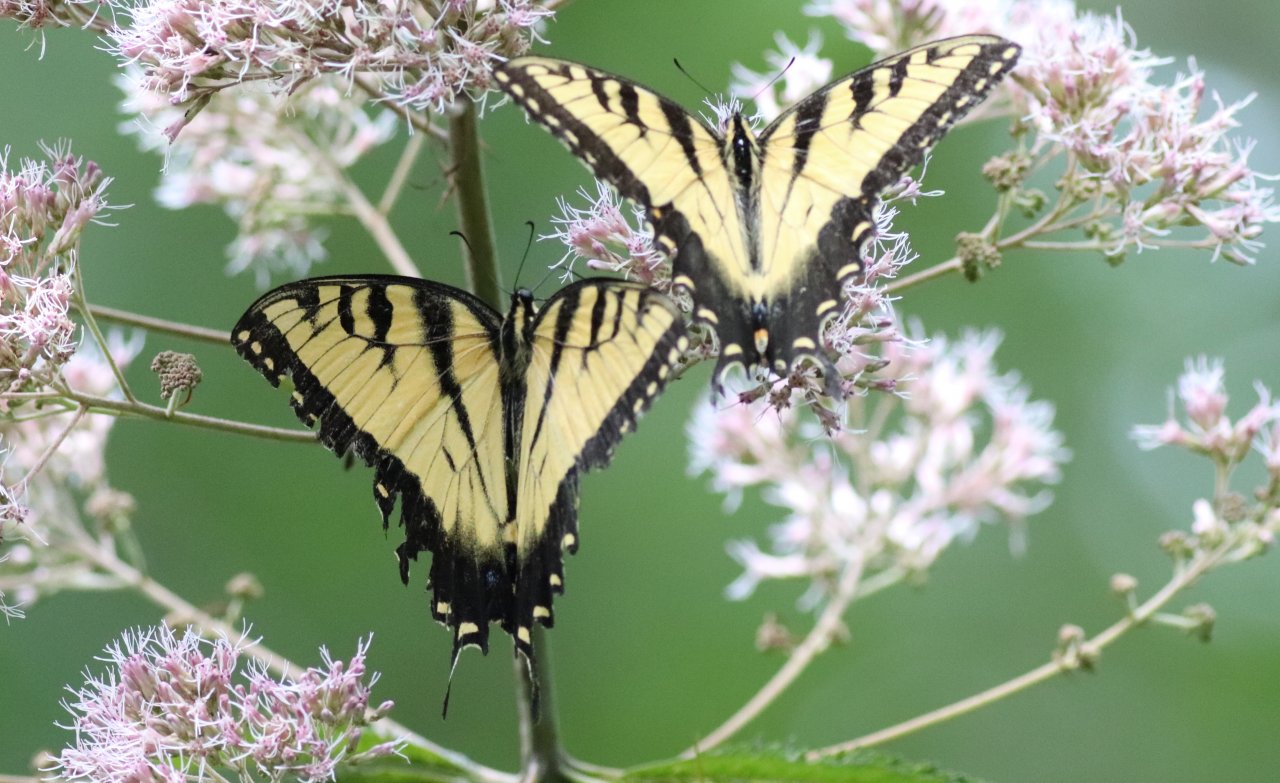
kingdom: Animalia
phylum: Arthropoda
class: Insecta
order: Lepidoptera
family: Papilionidae
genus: Pterourus
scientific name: Pterourus glaucus
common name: Eastern Tiger Swallowtail
